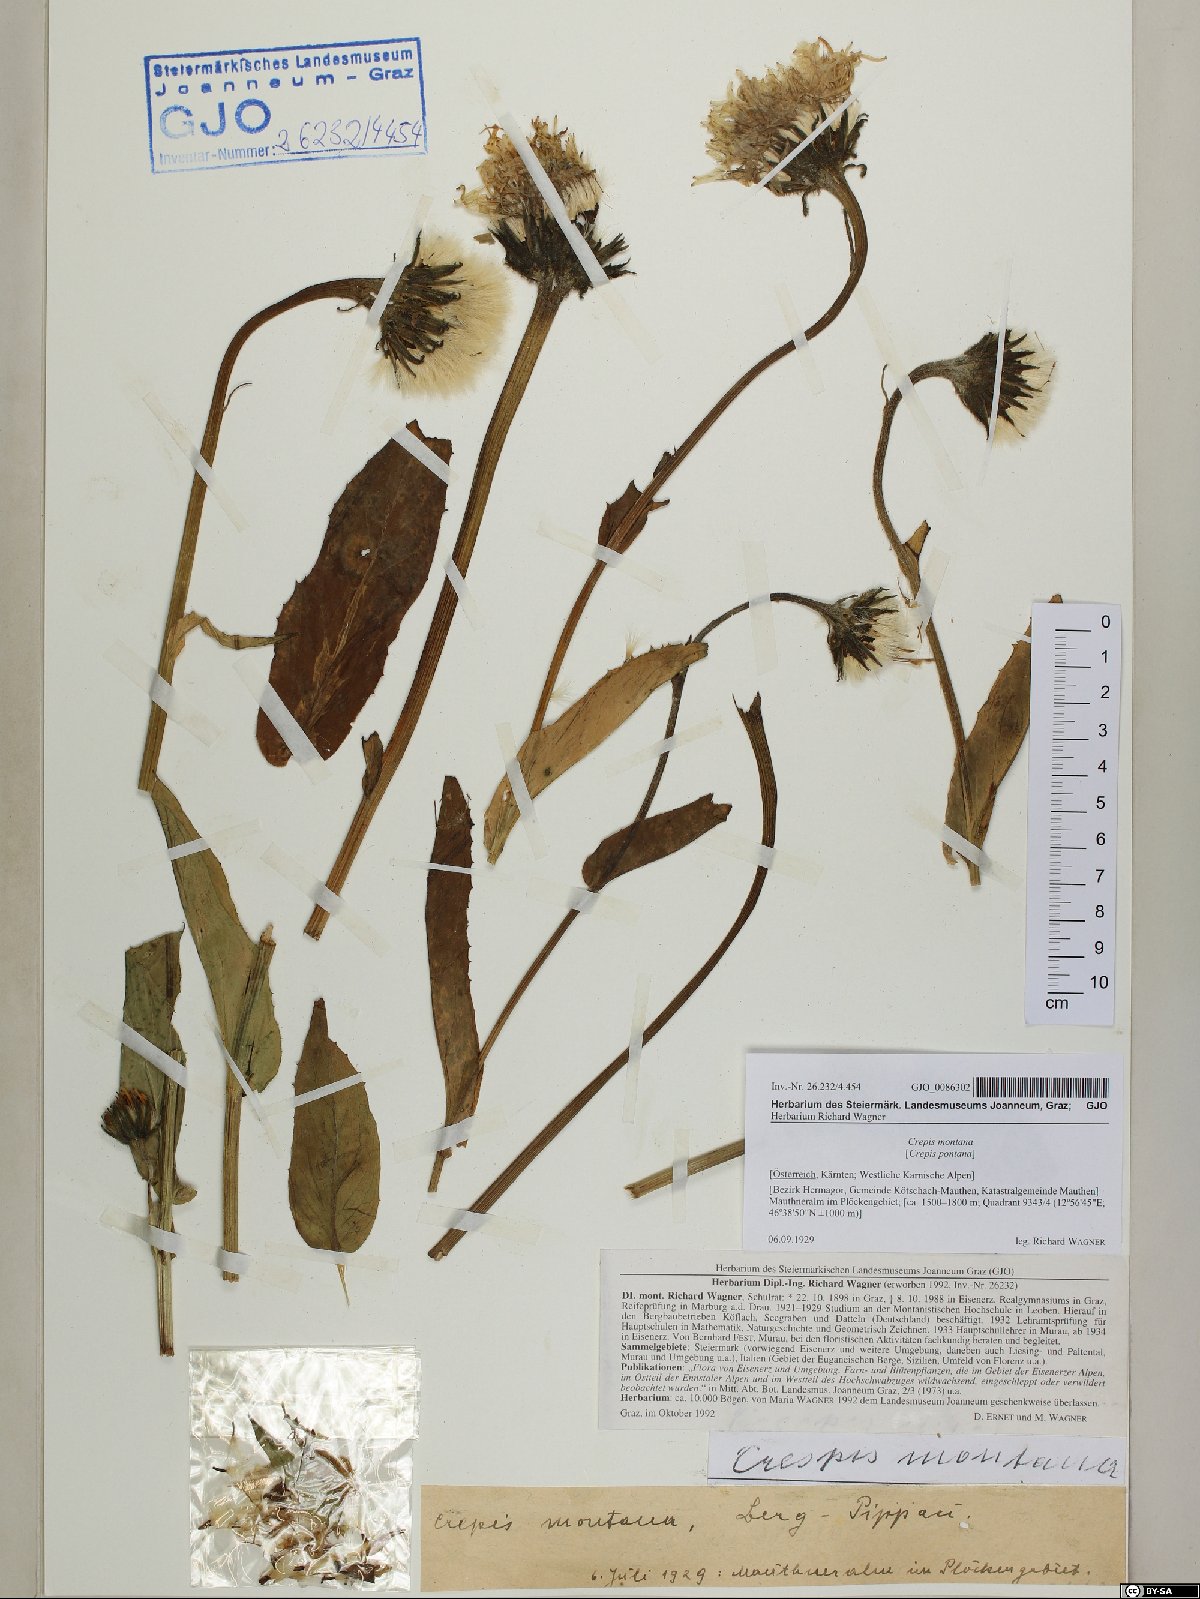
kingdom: Plantae
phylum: Tracheophyta
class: Magnoliopsida
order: Asterales
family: Asteraceae
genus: Crepis
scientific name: Crepis pontana
